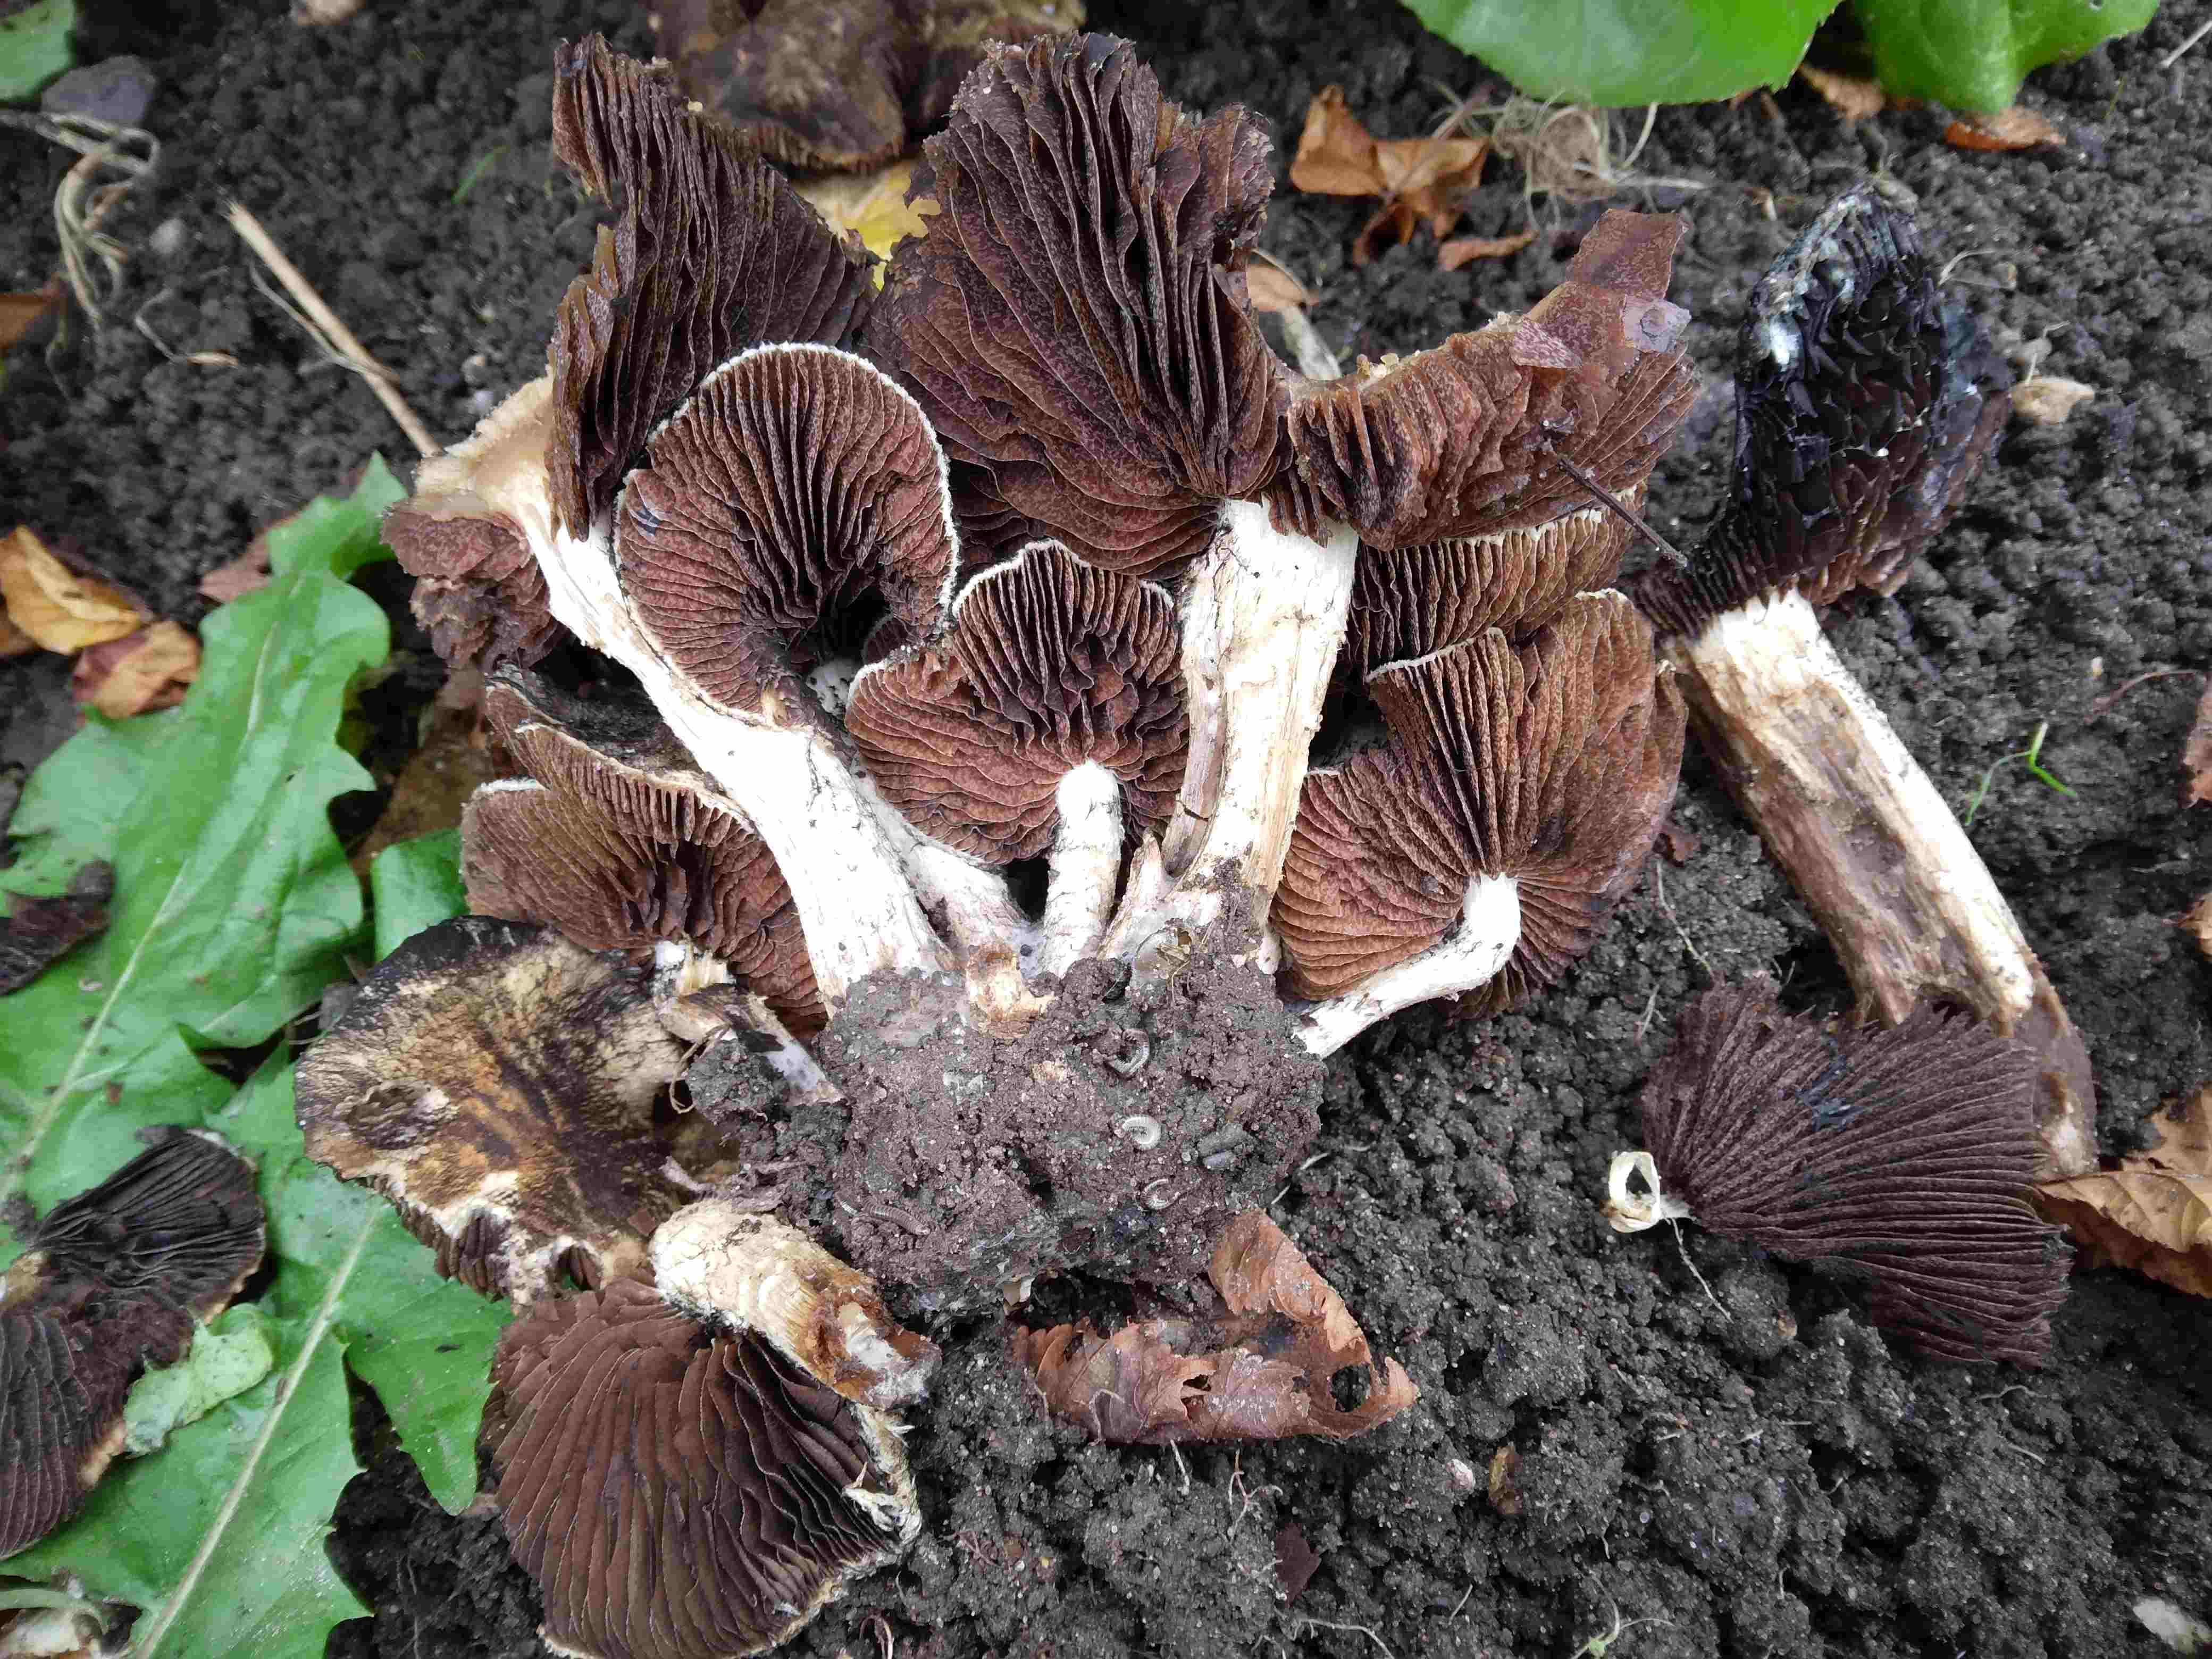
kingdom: Fungi
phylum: Basidiomycota
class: Agaricomycetes
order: Agaricales
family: Psathyrellaceae
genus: Lacrymaria
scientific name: Lacrymaria lacrymabunda
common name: grædende mørkhat
